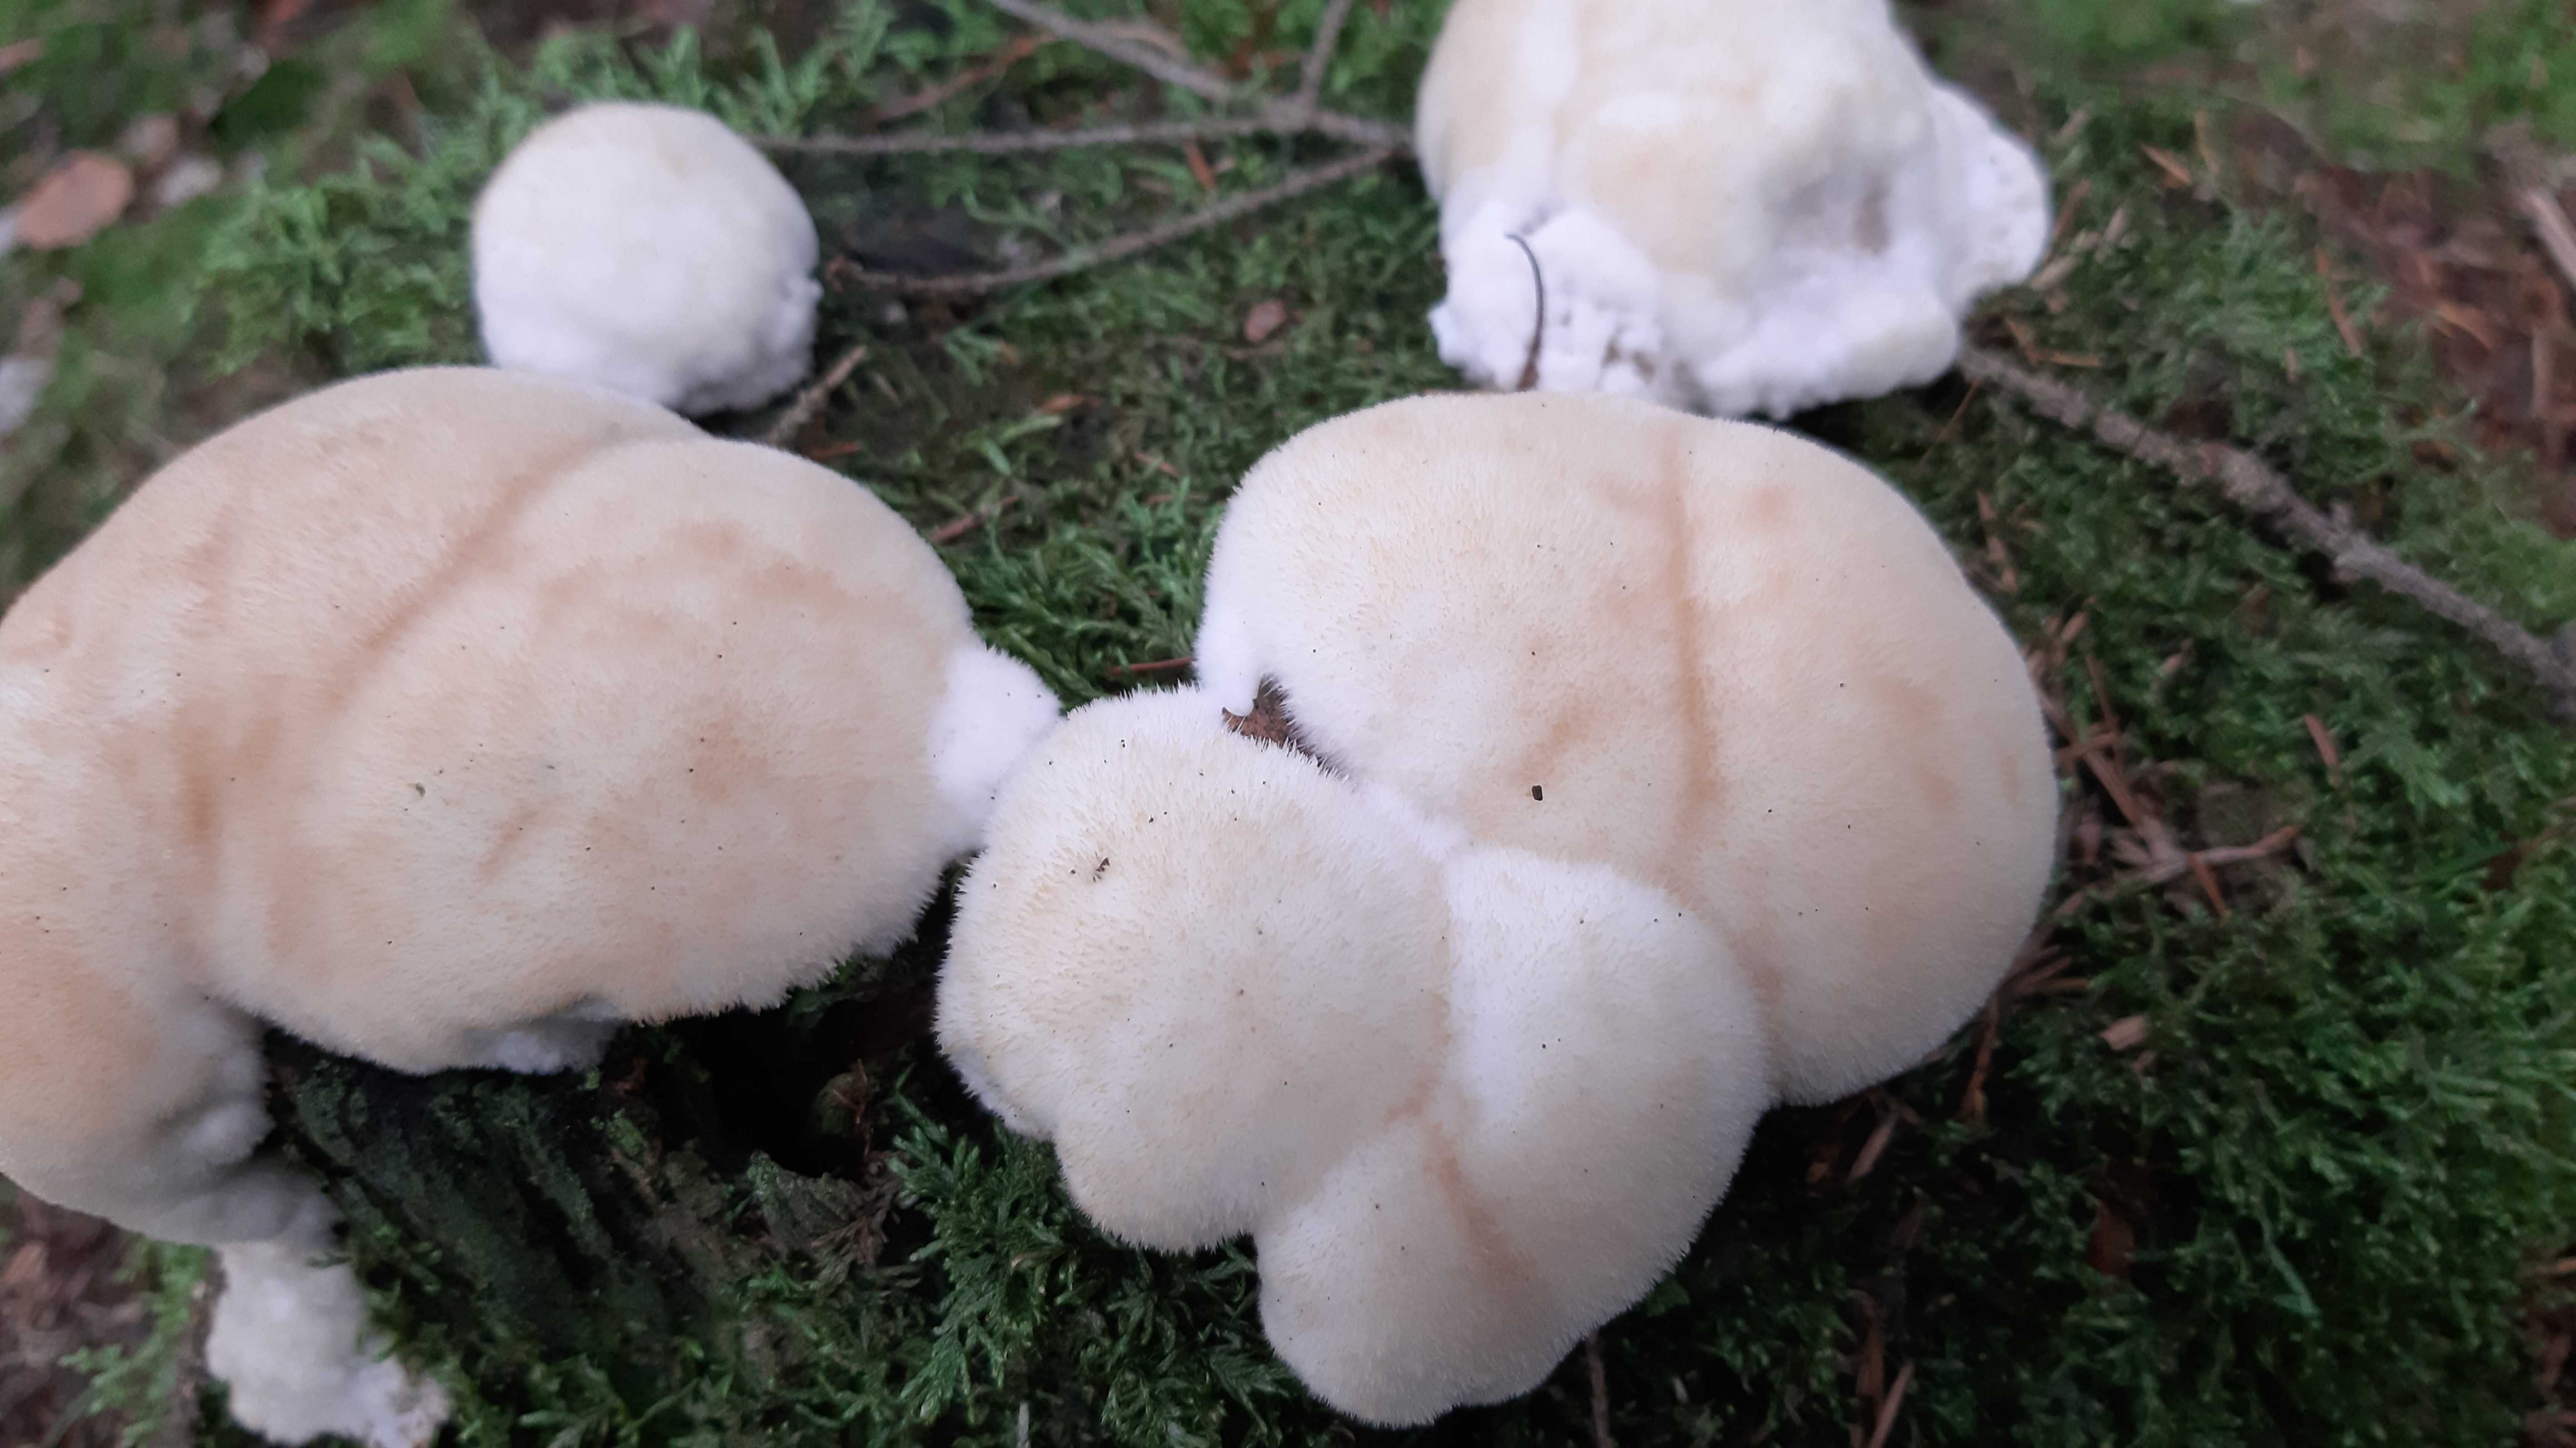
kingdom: Fungi
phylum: Basidiomycota
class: Agaricomycetes
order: Polyporales
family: Dacryobolaceae
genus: Postia
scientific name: Postia ptychogaster
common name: støvende kødporesvamp
